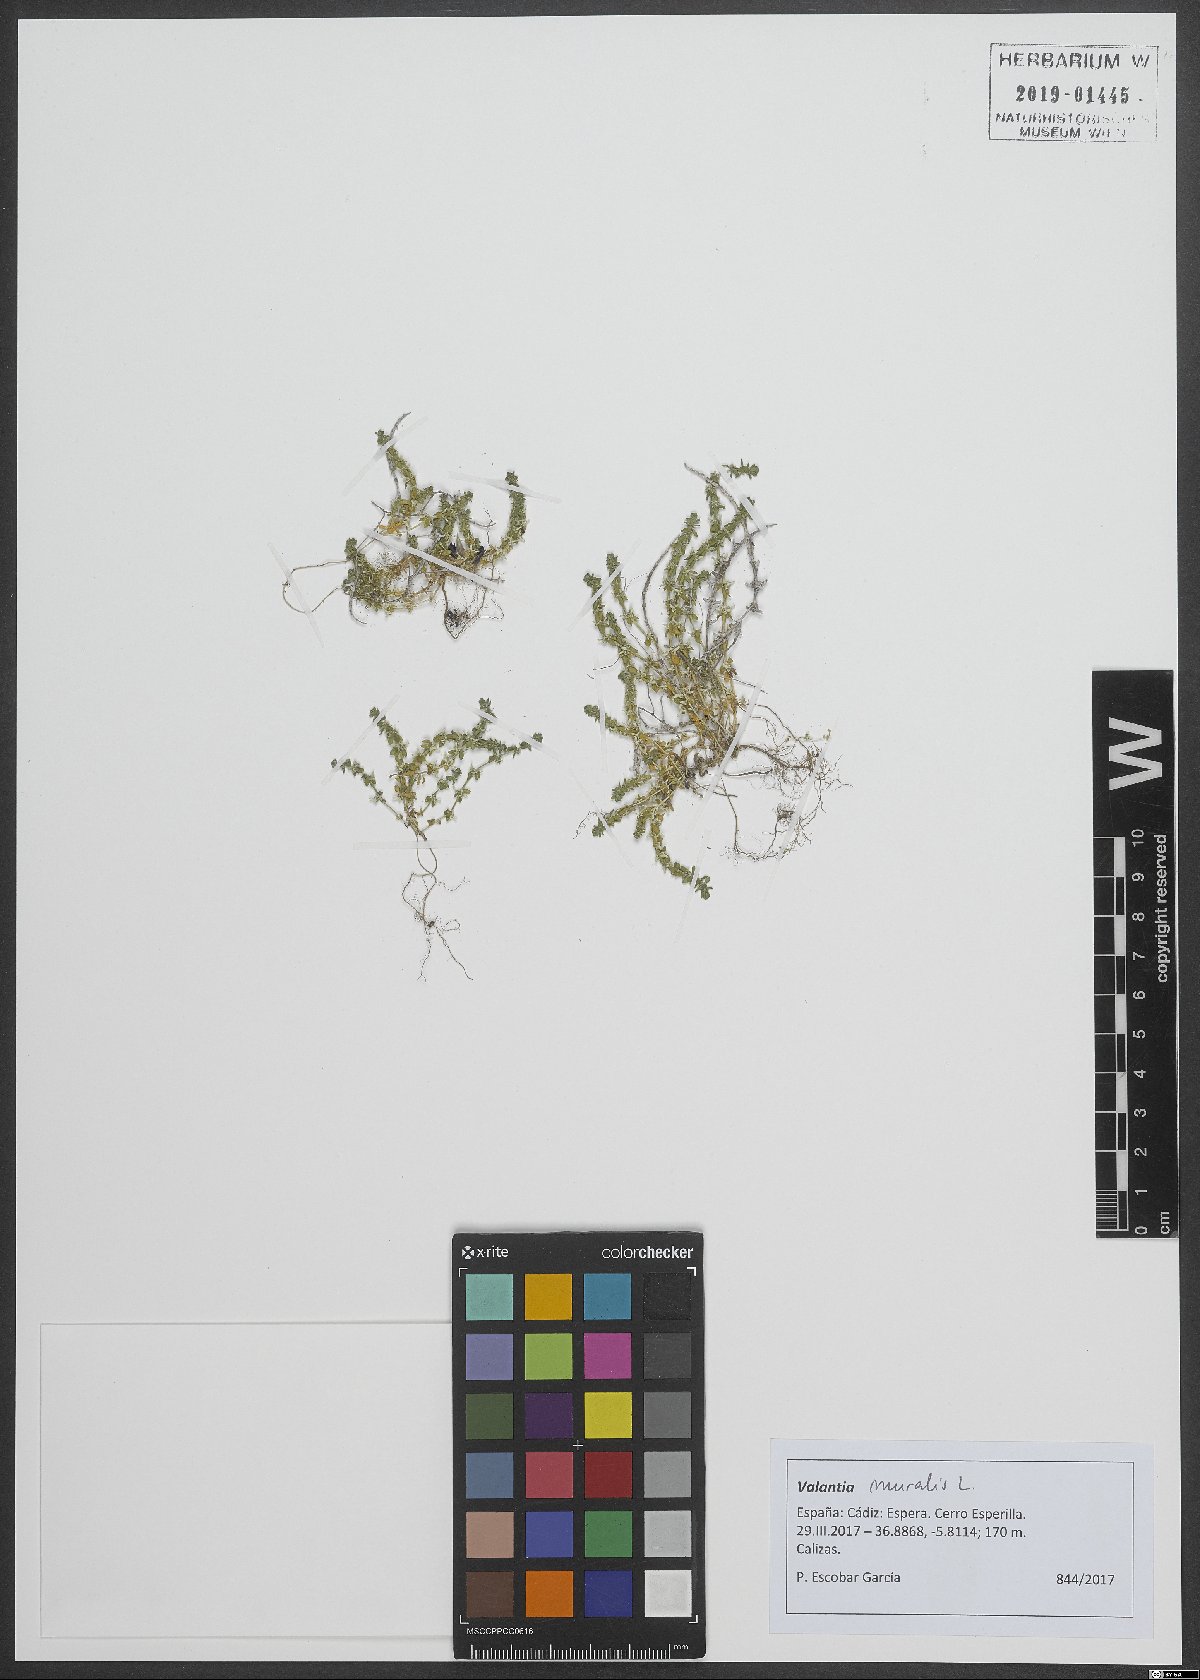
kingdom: Plantae
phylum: Tracheophyta
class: Magnoliopsida
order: Gentianales
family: Rubiaceae
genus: Valantia
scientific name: Valantia muralis
